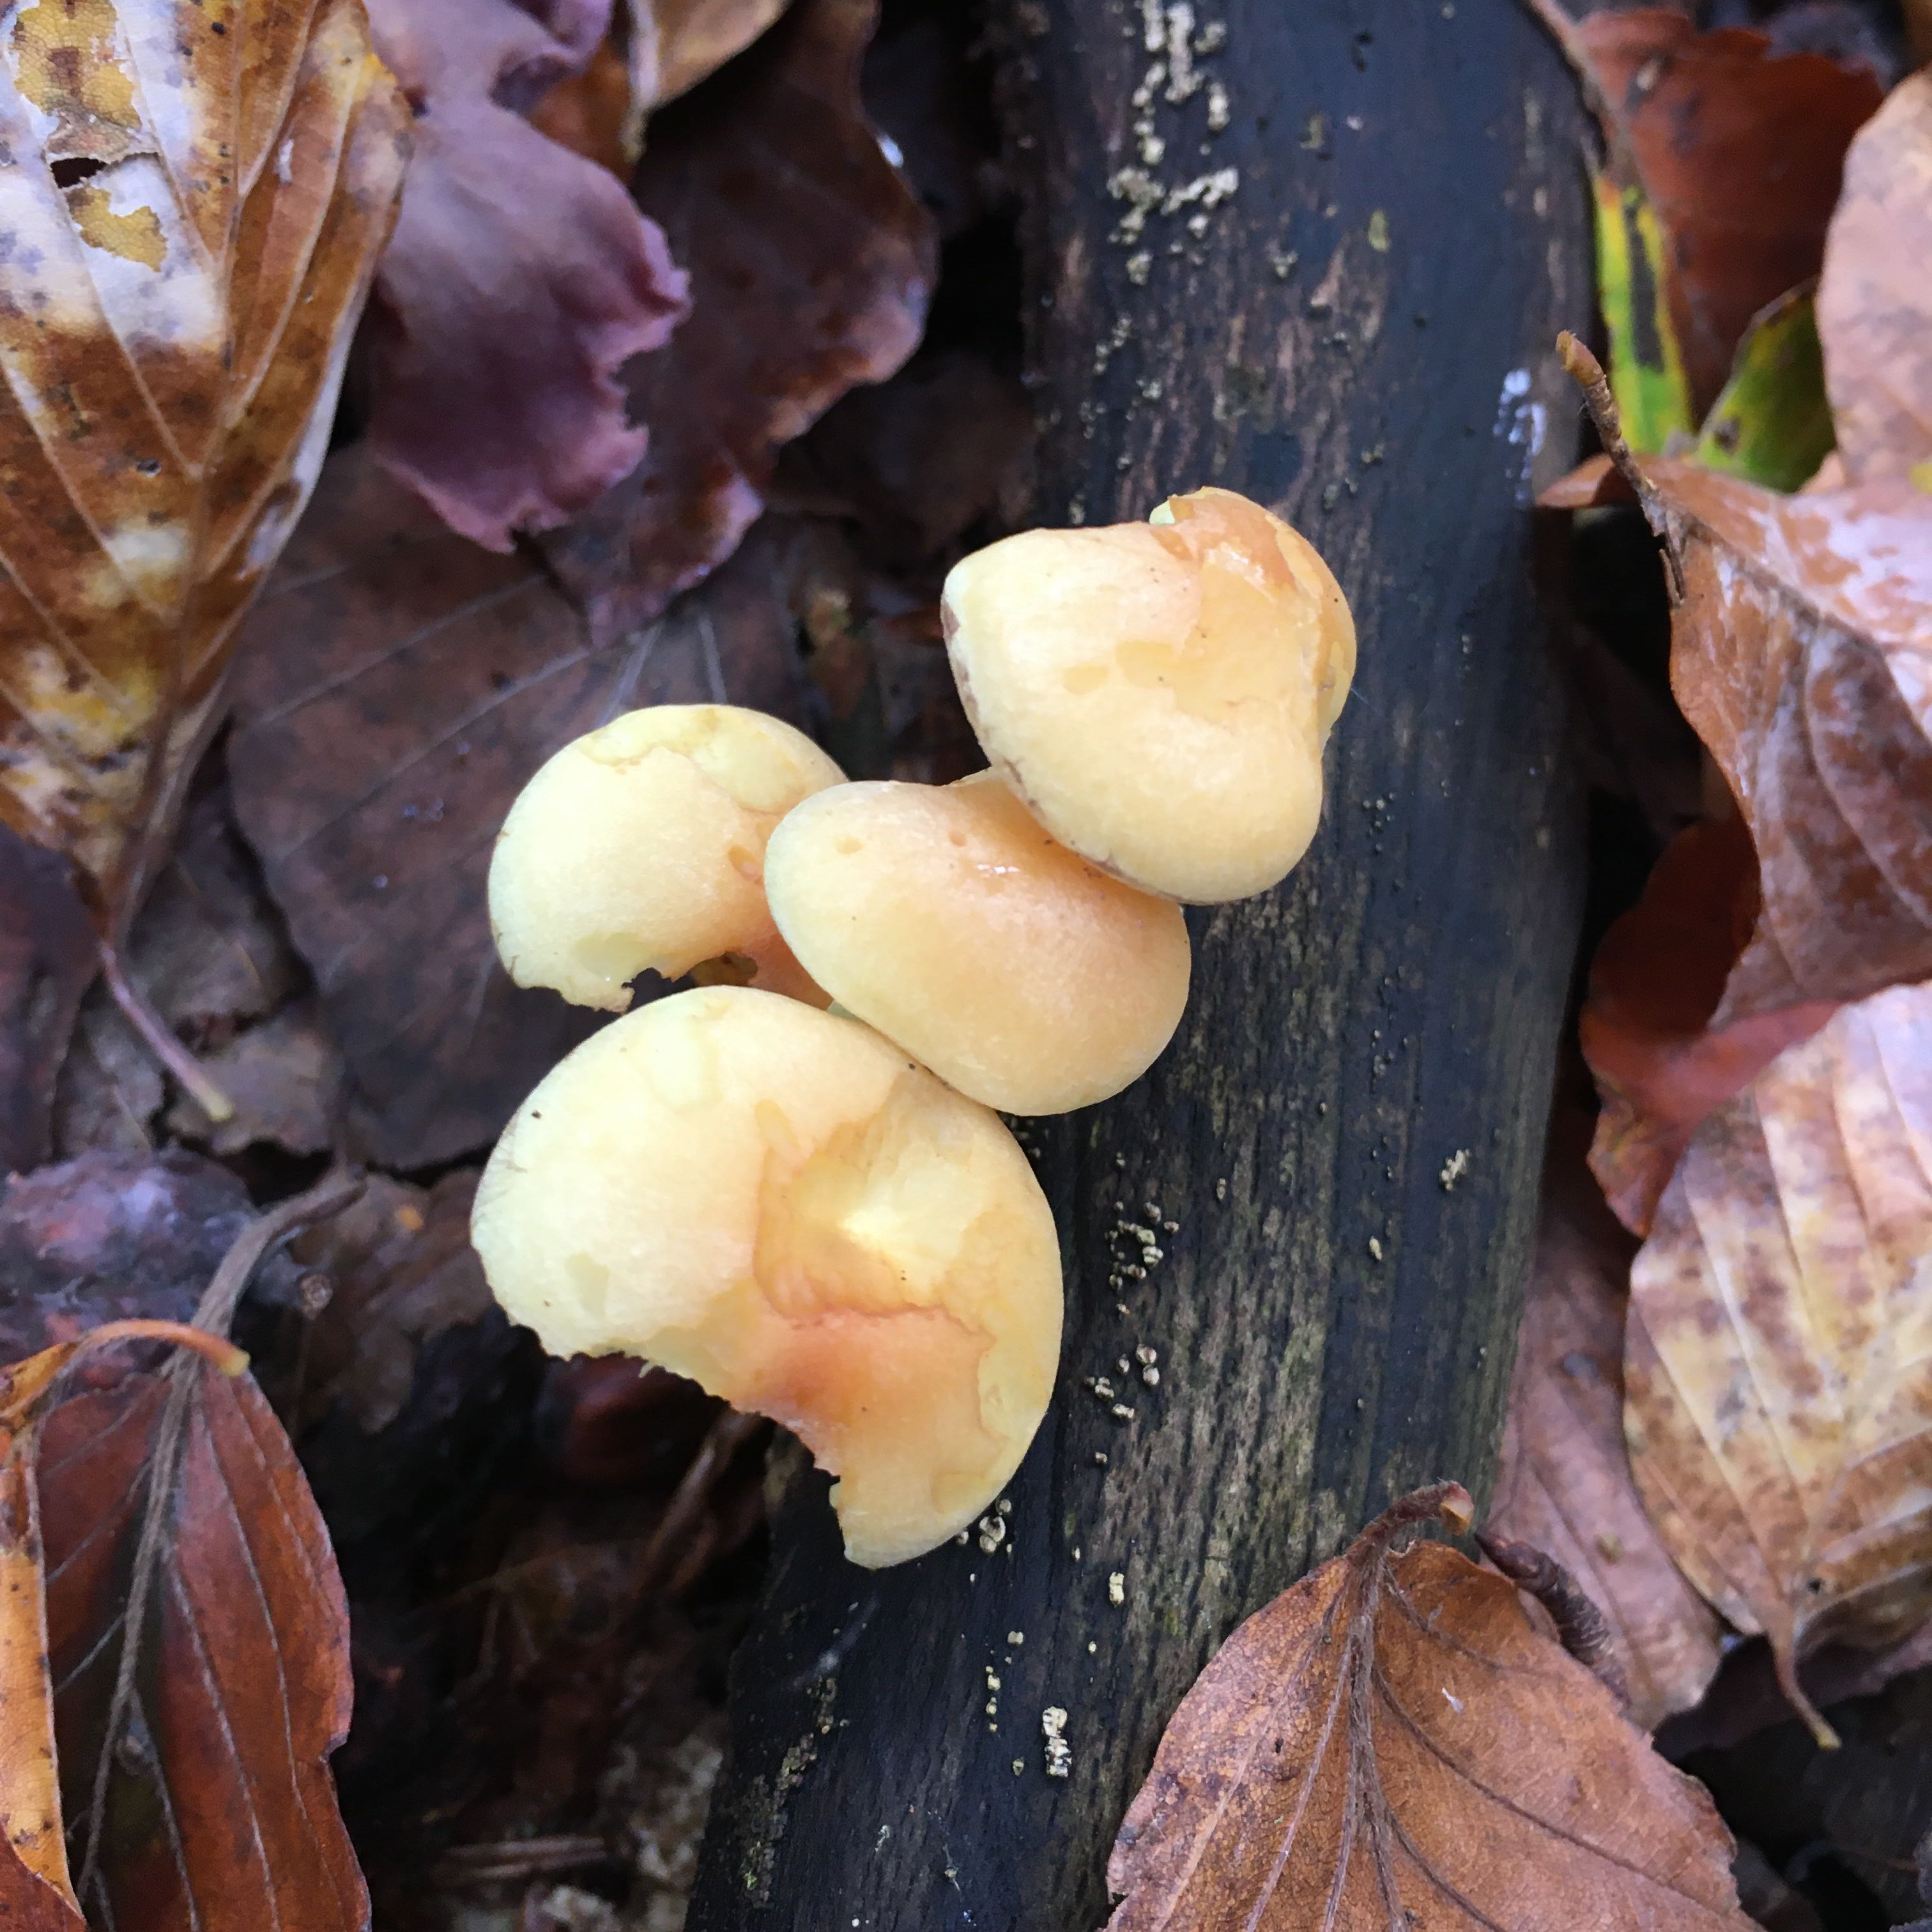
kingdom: Fungi
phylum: Basidiomycota
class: Agaricomycetes
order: Agaricales
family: Strophariaceae
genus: Hypholoma
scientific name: Hypholoma fasciculare
